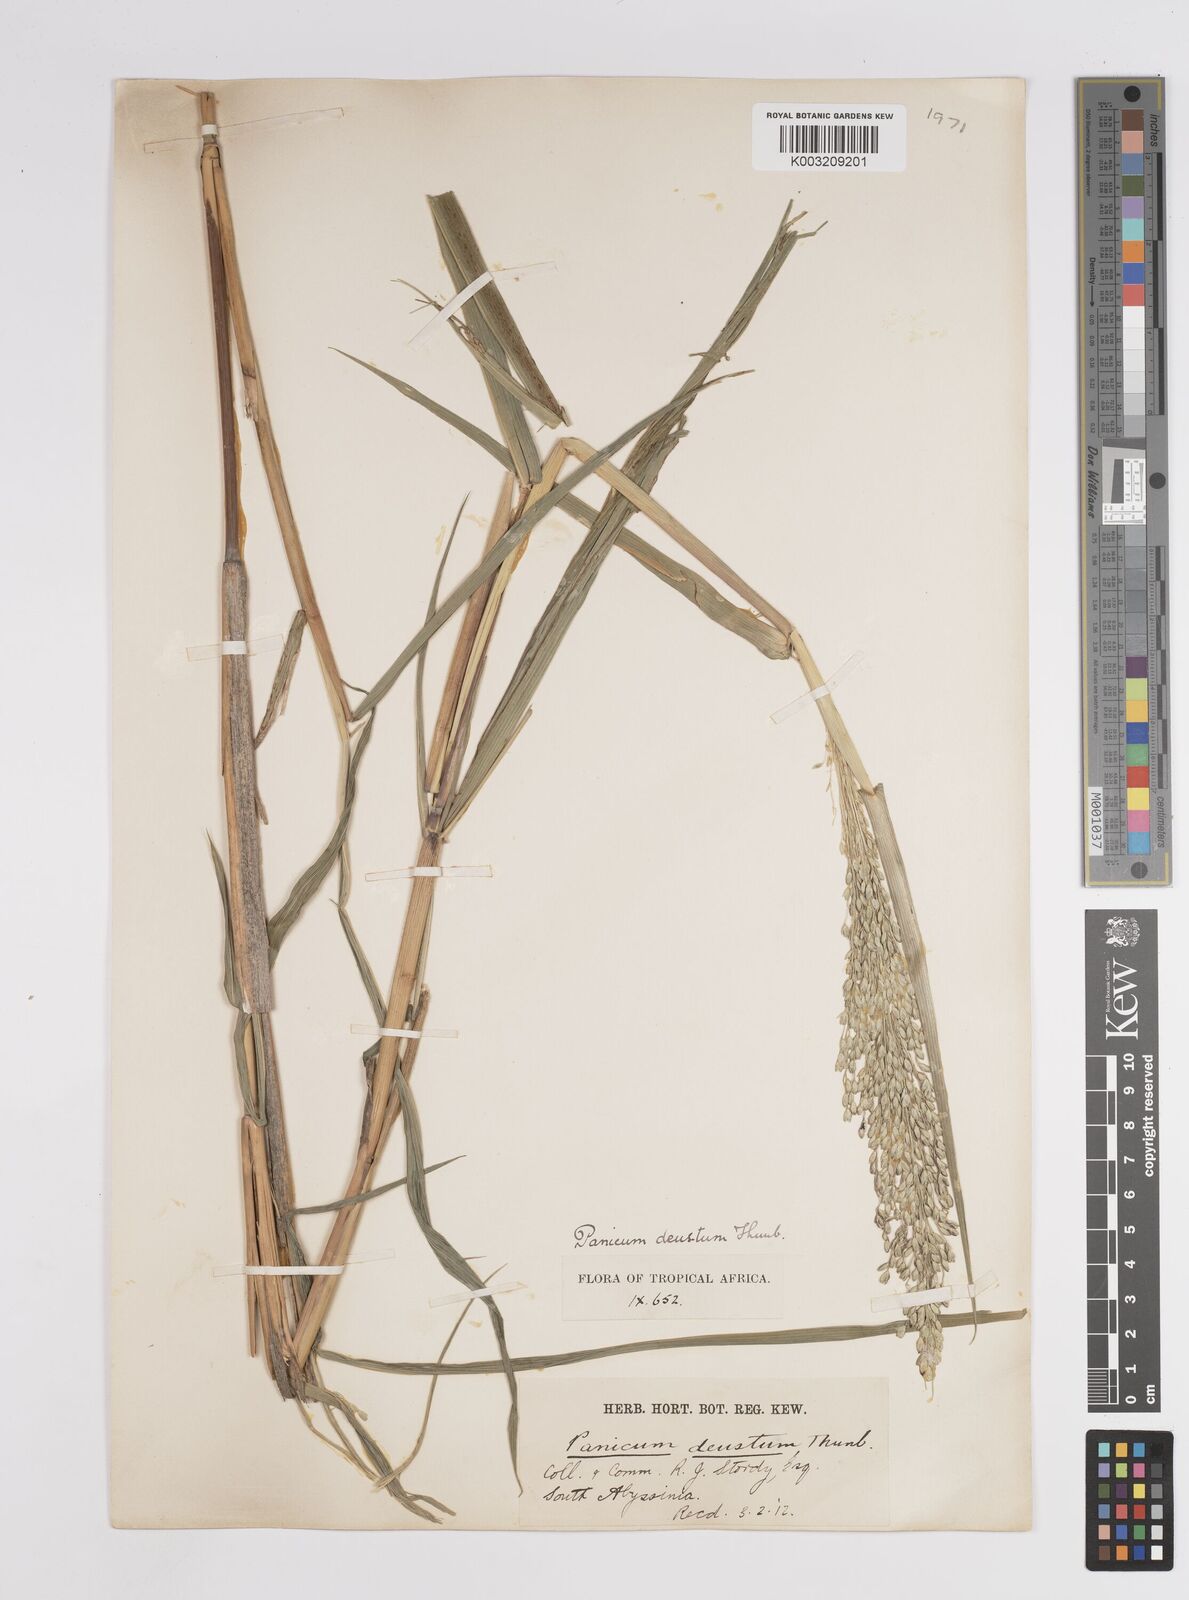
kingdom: Plantae
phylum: Tracheophyta
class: Liliopsida
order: Poales
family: Poaceae
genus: Panicum
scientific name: Panicum
